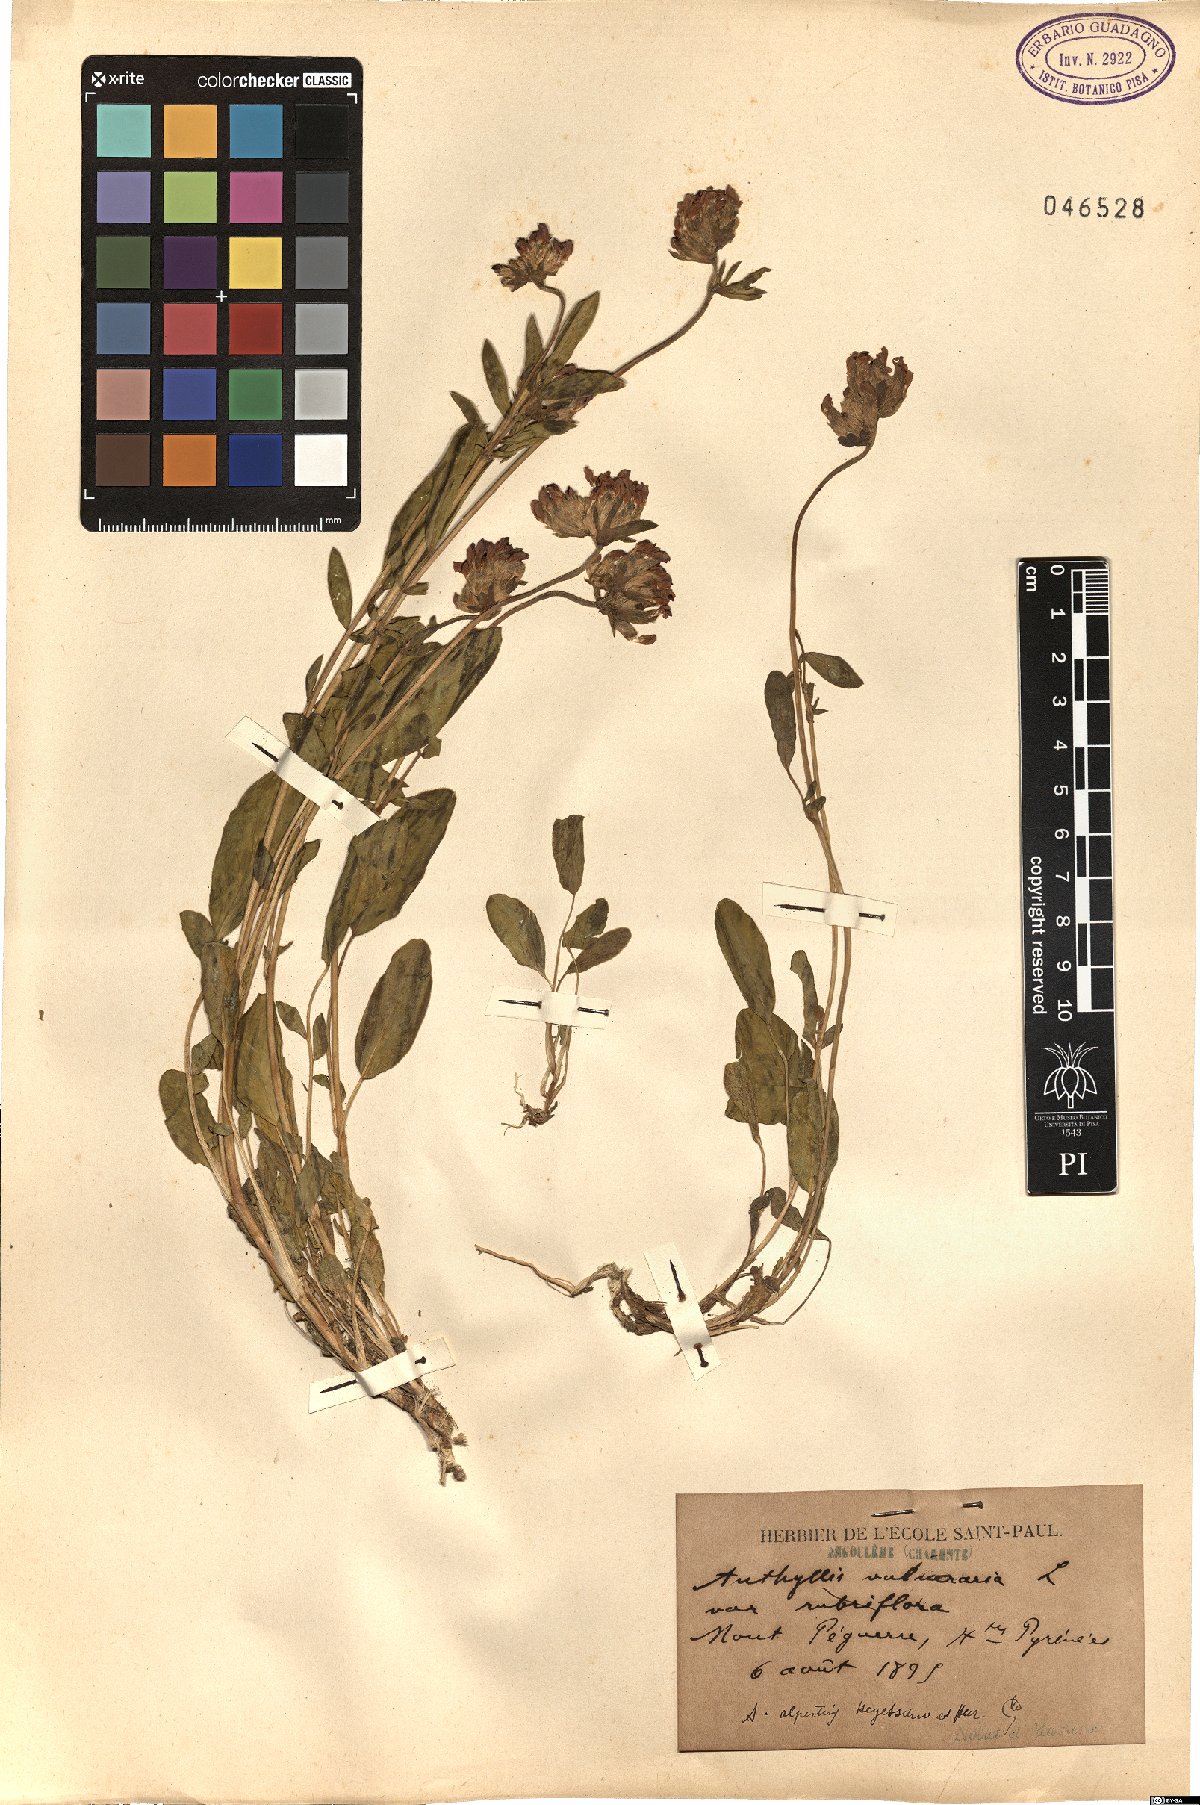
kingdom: Plantae
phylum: Tracheophyta
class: Magnoliopsida
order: Fabales
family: Fabaceae
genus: Anthyllis
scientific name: Anthyllis vulneraria
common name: Kidney vetch
